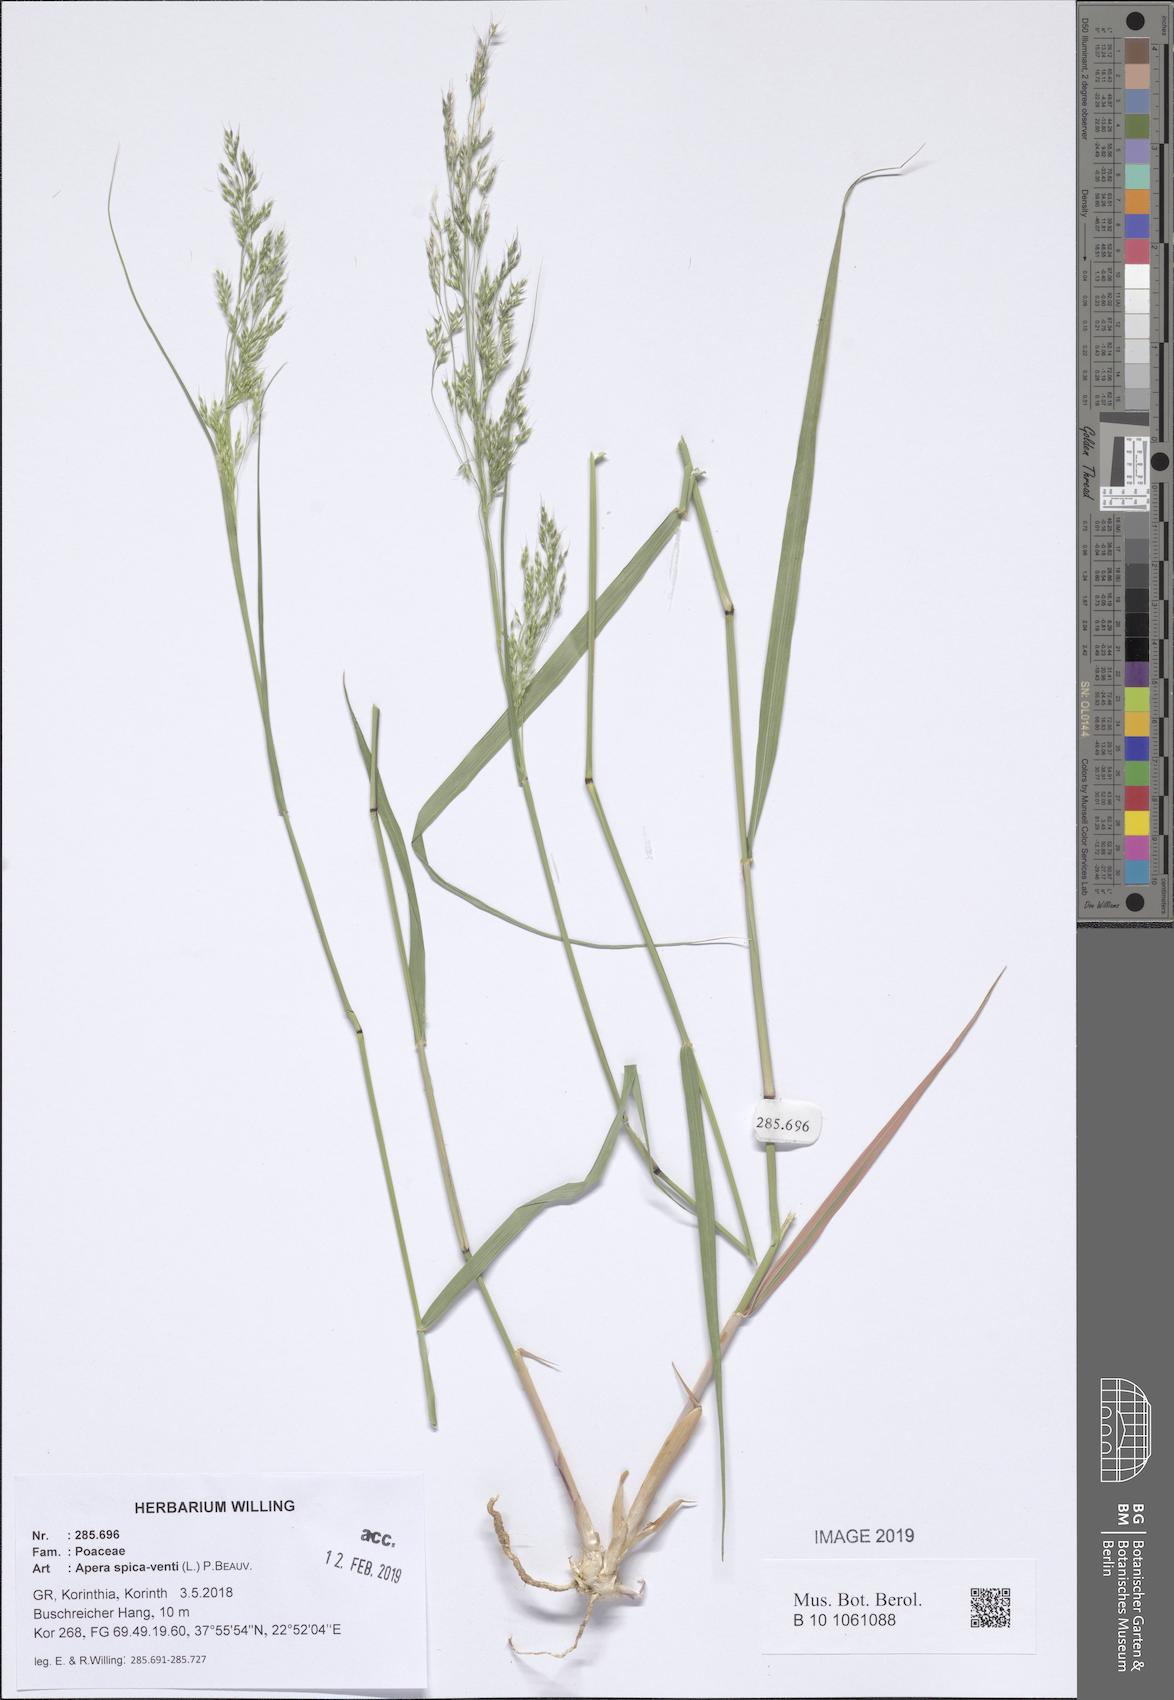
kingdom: Plantae
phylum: Tracheophyta
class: Liliopsida
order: Poales
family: Poaceae
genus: Apera
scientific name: Apera spica-venti
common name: Loose silky-bent
